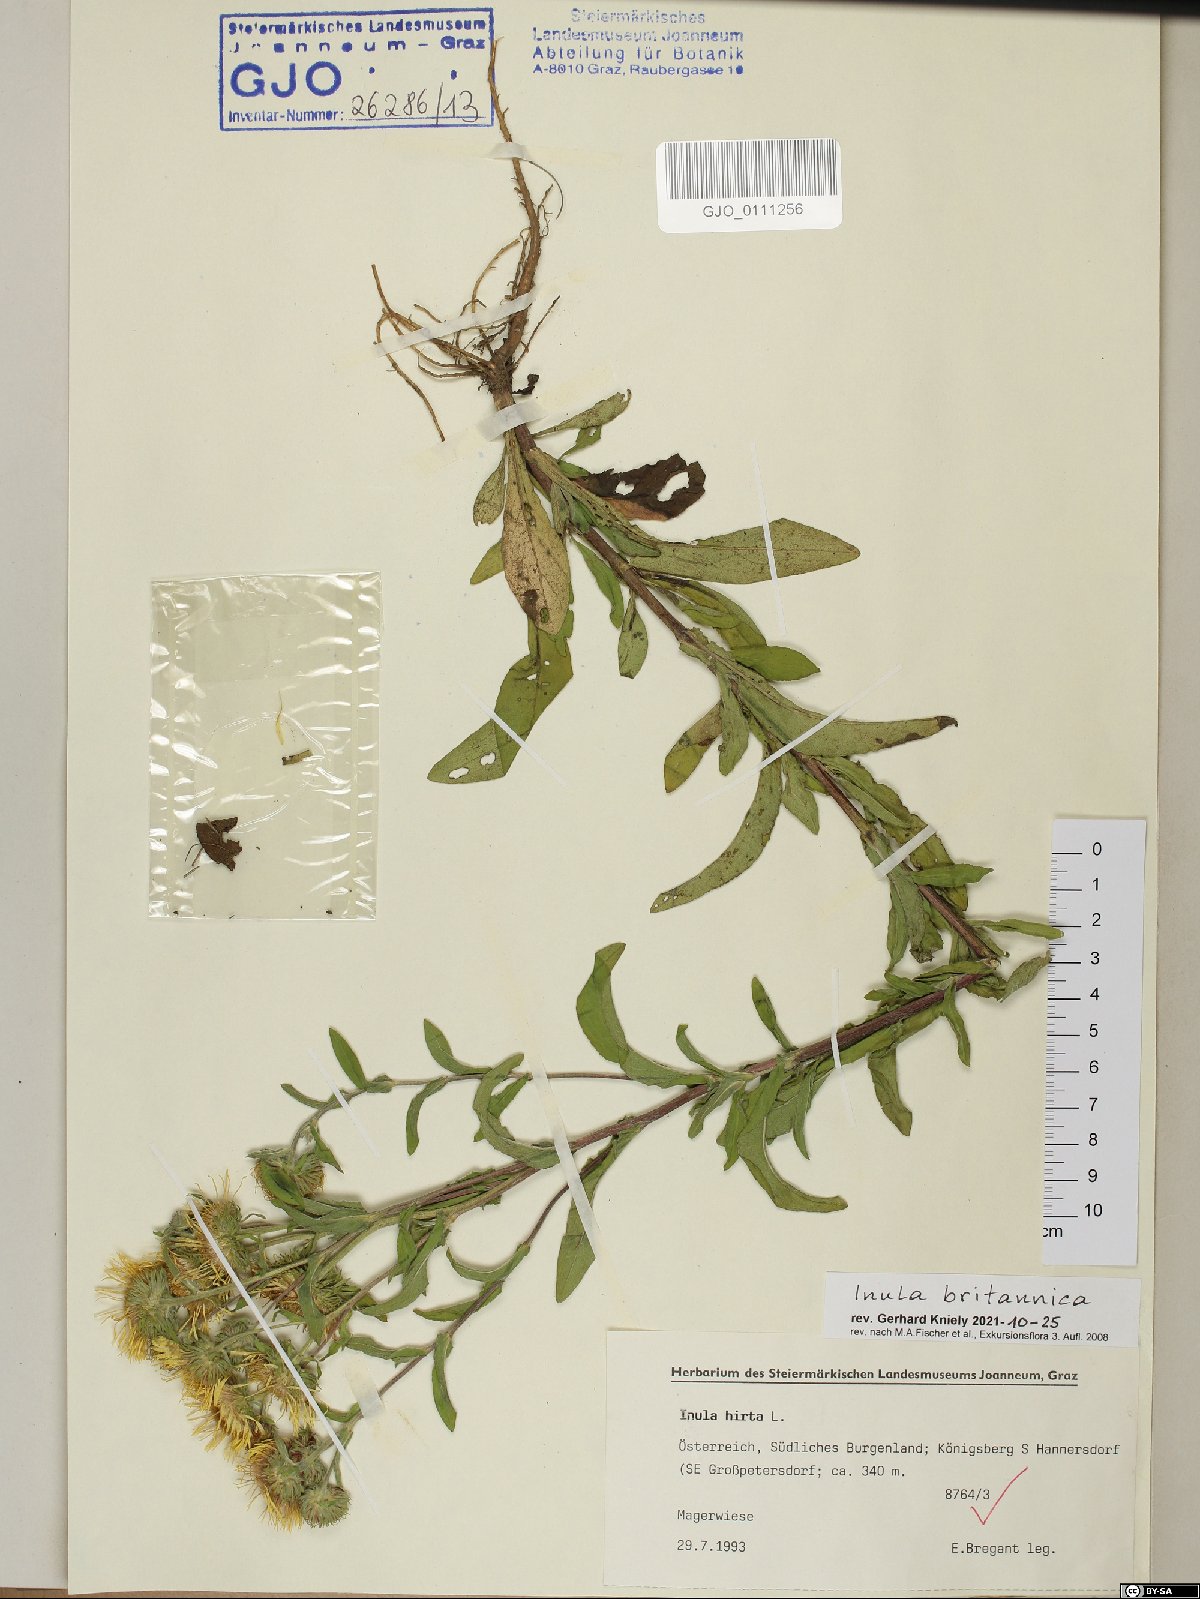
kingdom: Plantae
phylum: Tracheophyta
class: Magnoliopsida
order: Asterales
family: Asteraceae
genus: Pentanema
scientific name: Pentanema britannicum
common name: British elecampane
